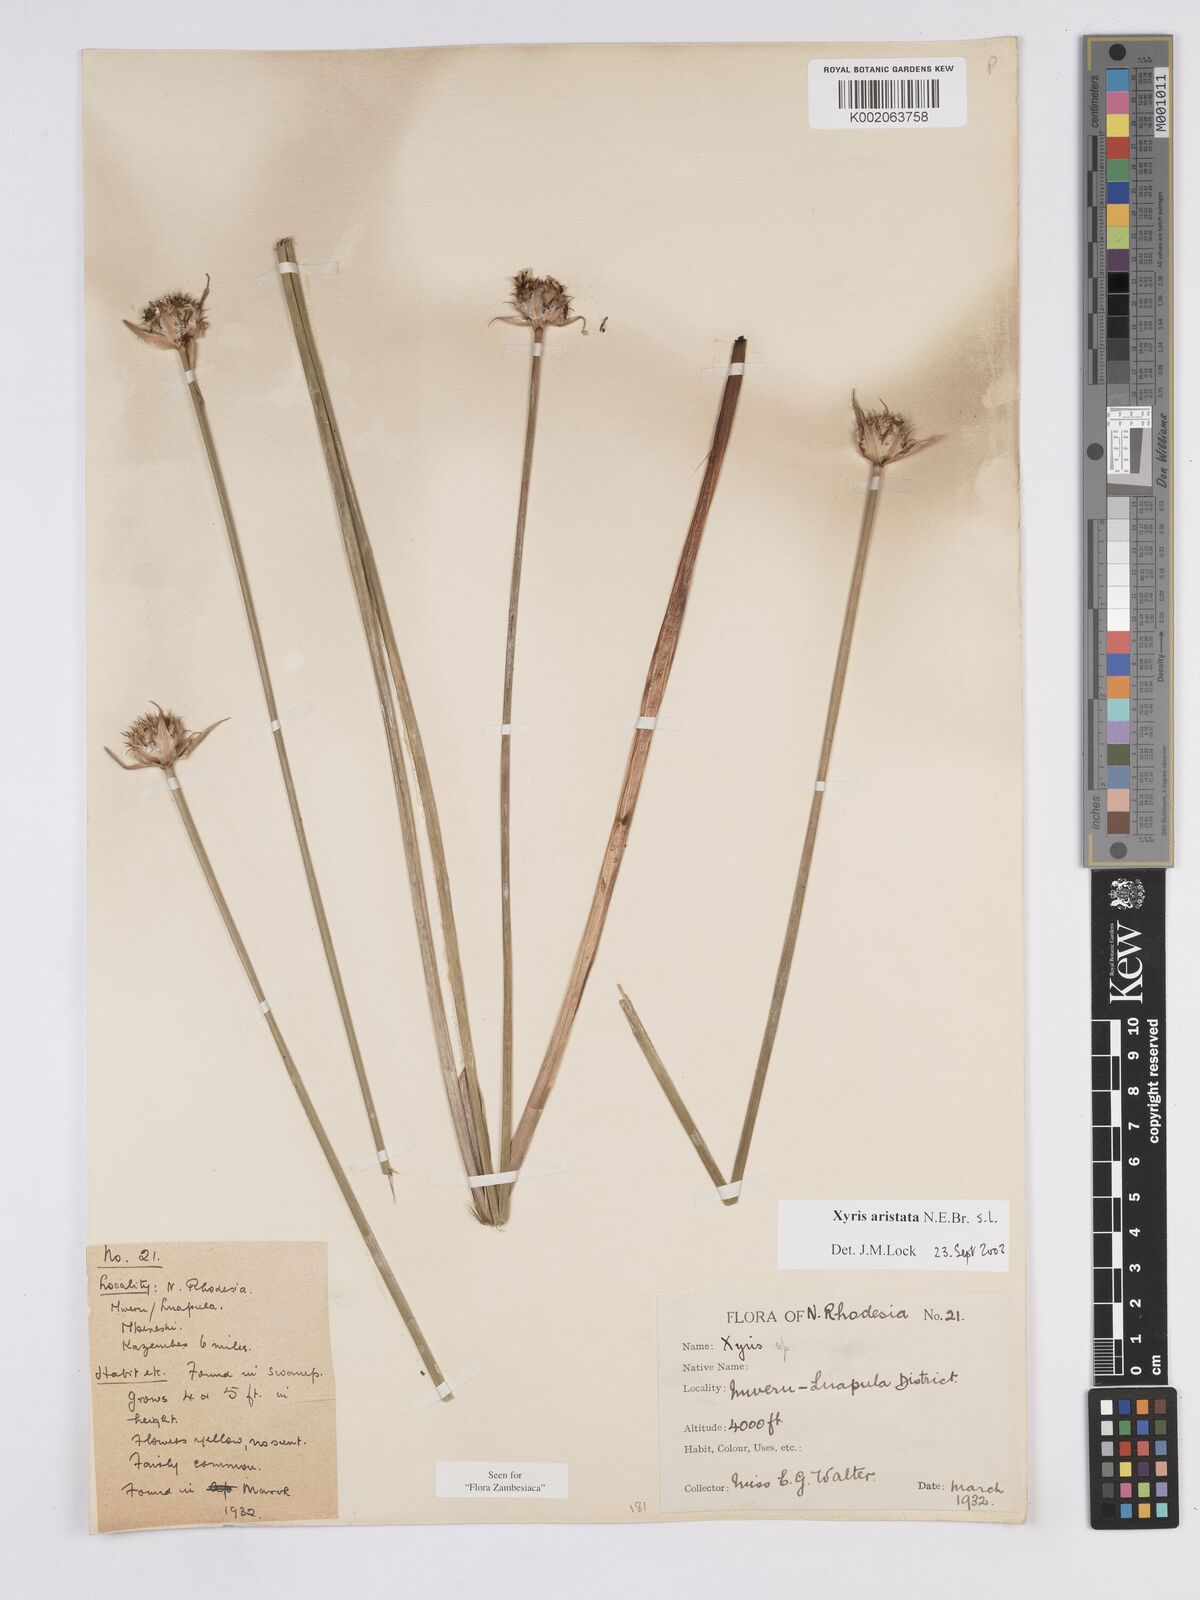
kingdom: Plantae
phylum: Tracheophyta
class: Liliopsida
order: Poales
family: Xyridaceae
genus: Xyris
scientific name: Xyris aristata
